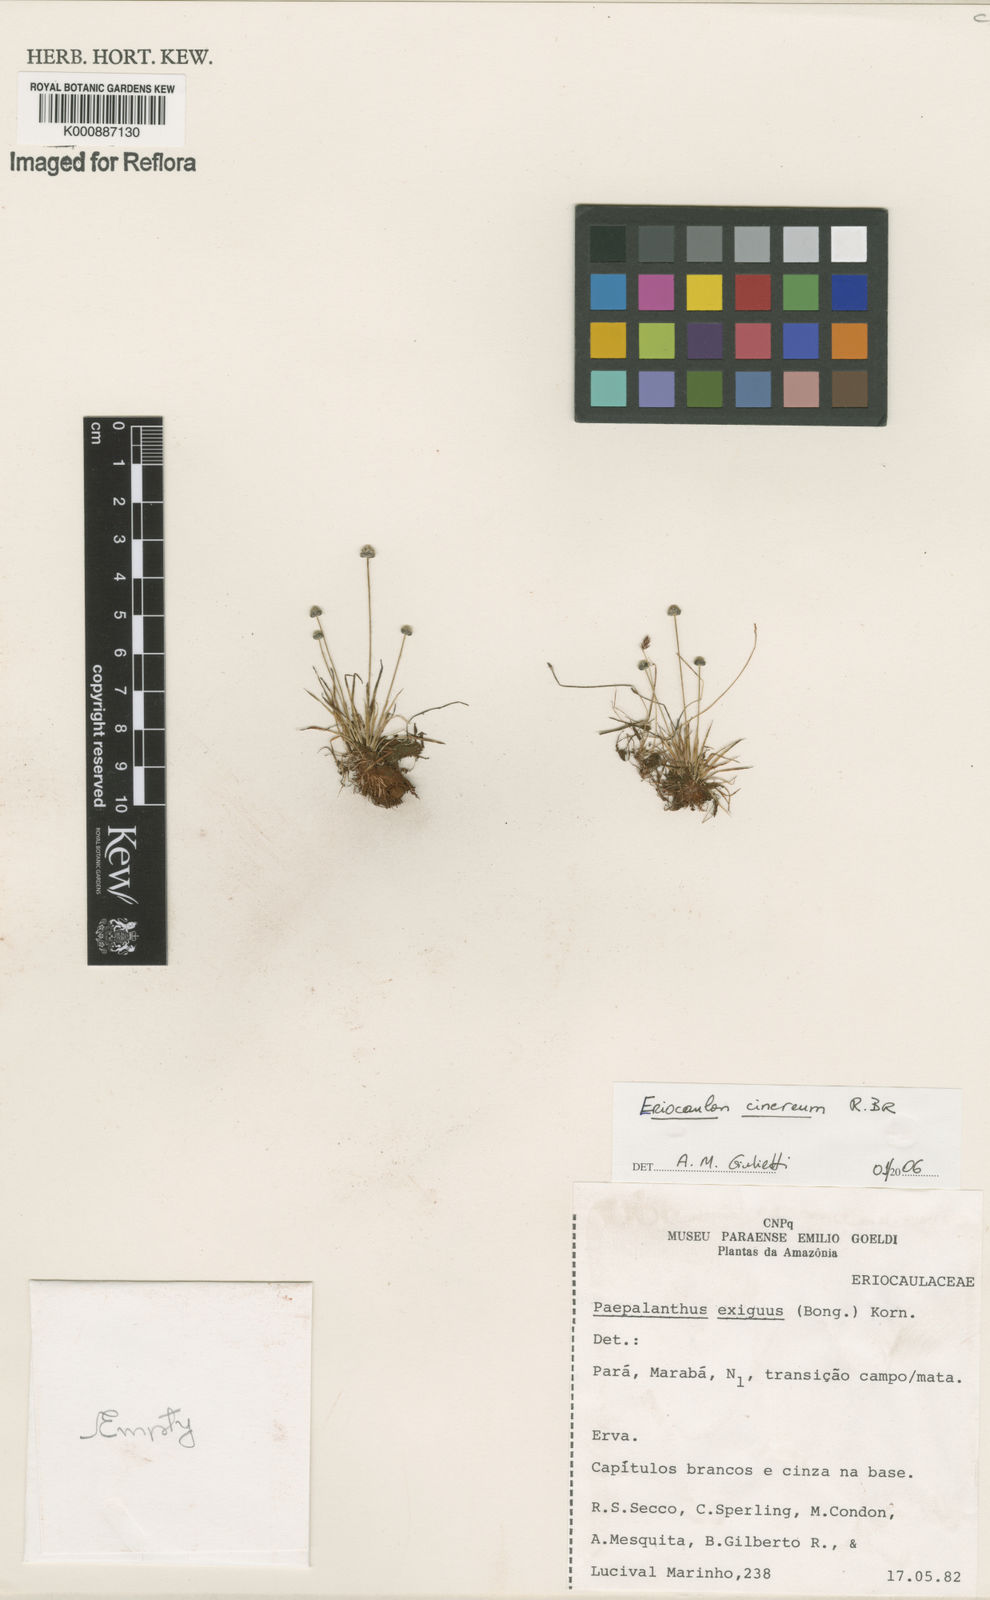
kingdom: Plantae
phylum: Tracheophyta
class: Liliopsida
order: Poales
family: Eriocaulaceae
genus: Eriocaulon
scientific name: Eriocaulon cinereum
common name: Ashy pipewort
